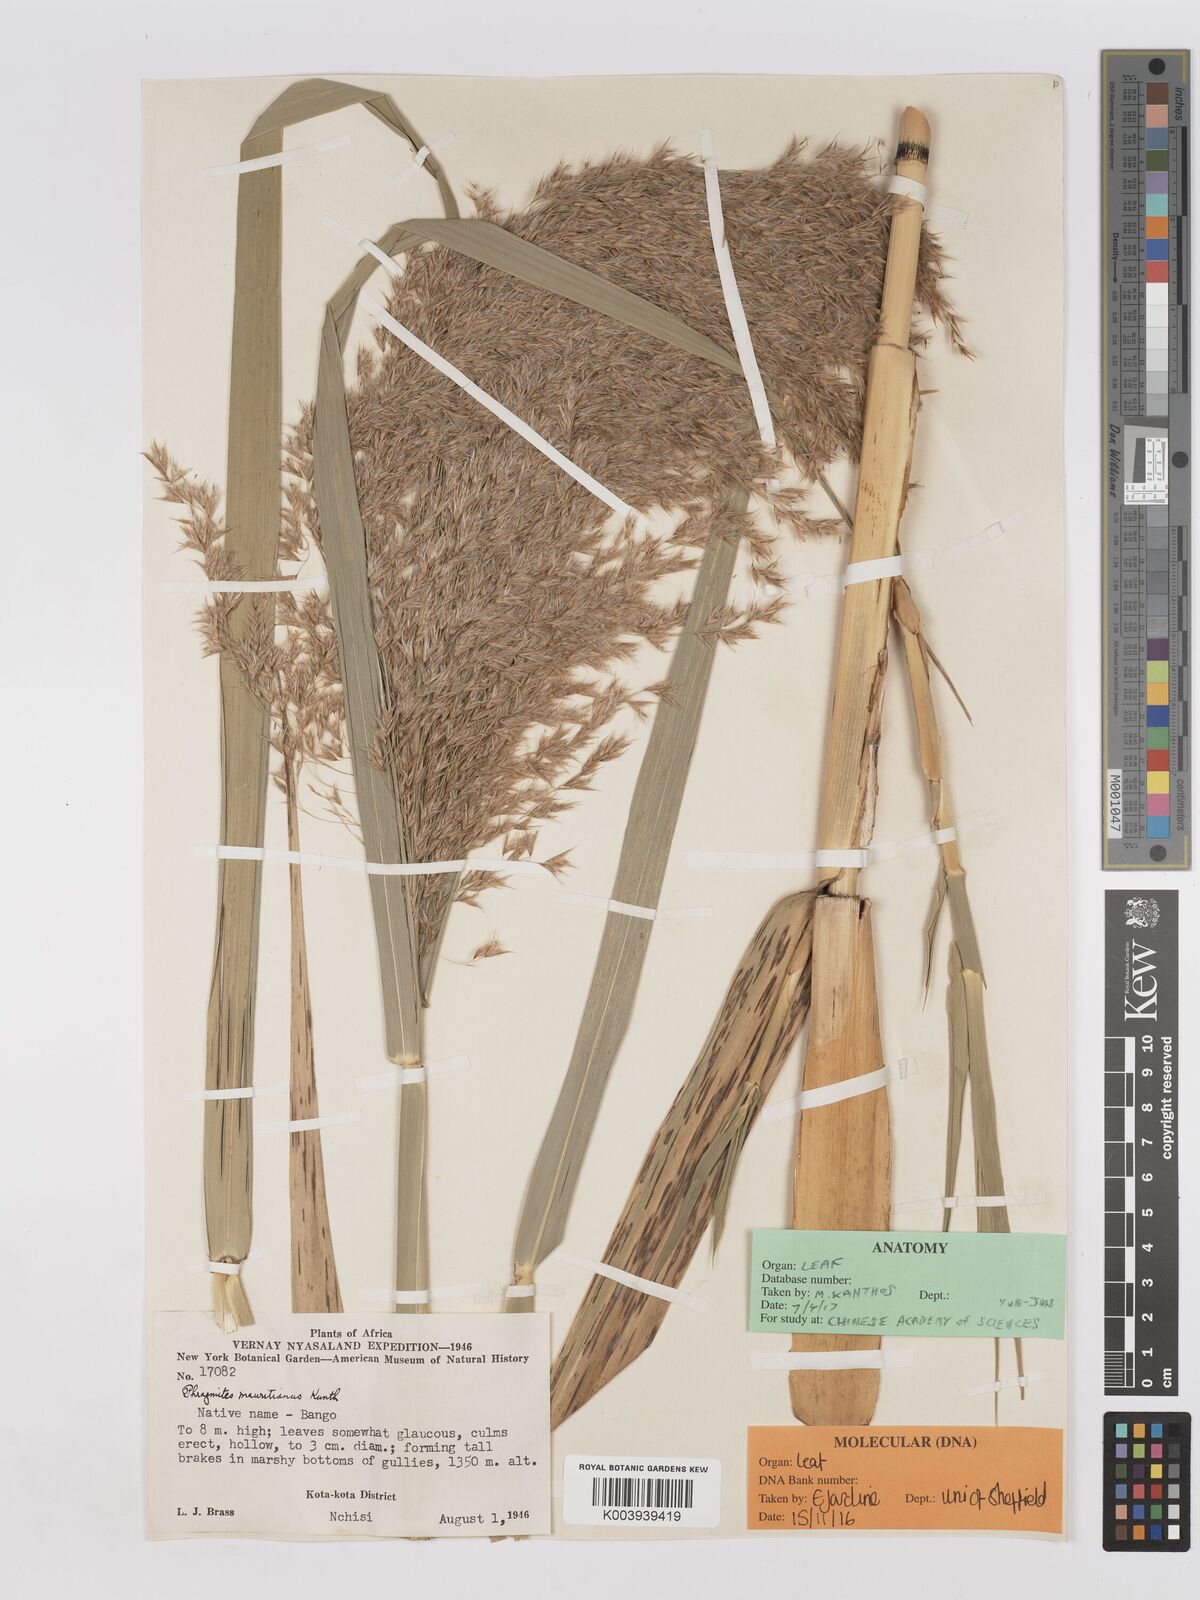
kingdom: Plantae
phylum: Tracheophyta
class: Liliopsida
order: Poales
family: Poaceae
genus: Phragmites
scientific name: Phragmites mauritianus
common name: Reed grass
